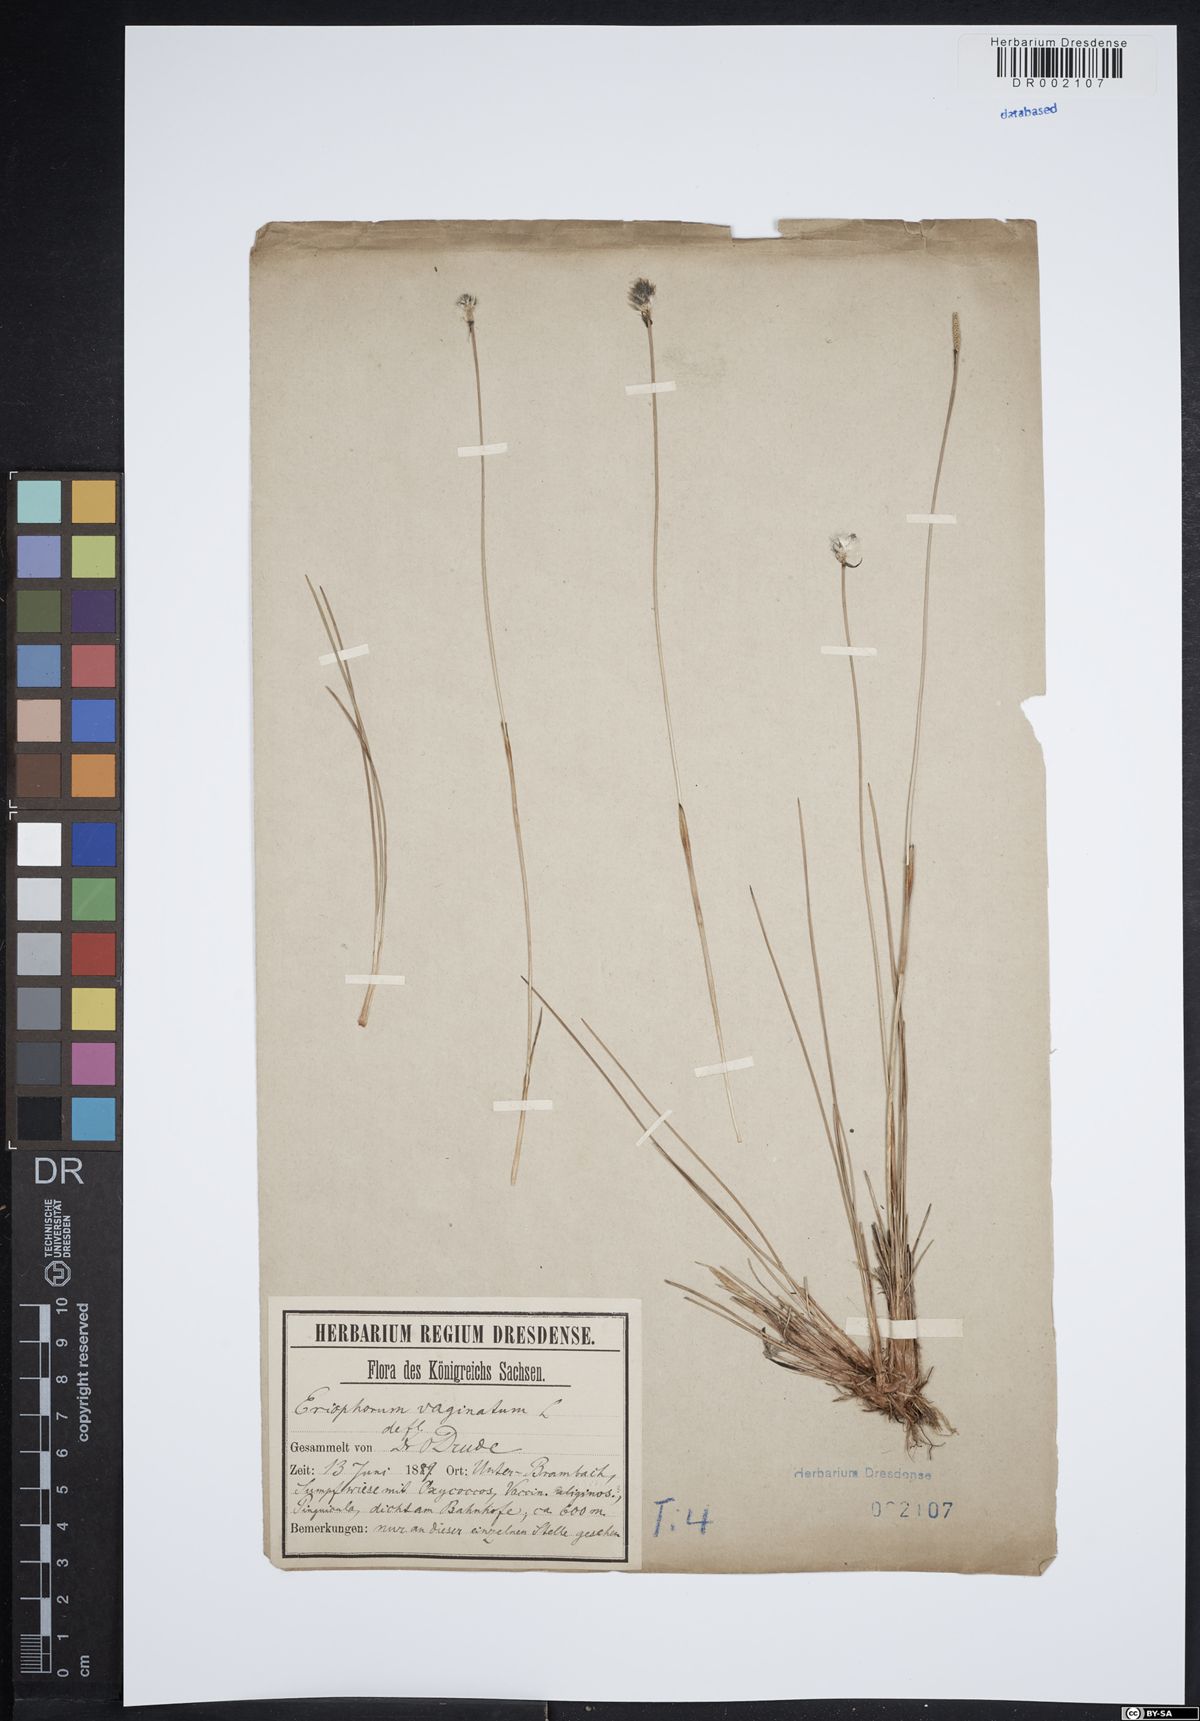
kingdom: Plantae
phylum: Tracheophyta
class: Liliopsida
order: Poales
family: Cyperaceae
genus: Eriophorum
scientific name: Eriophorum vaginatum
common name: Hare's-tail cottongrass
